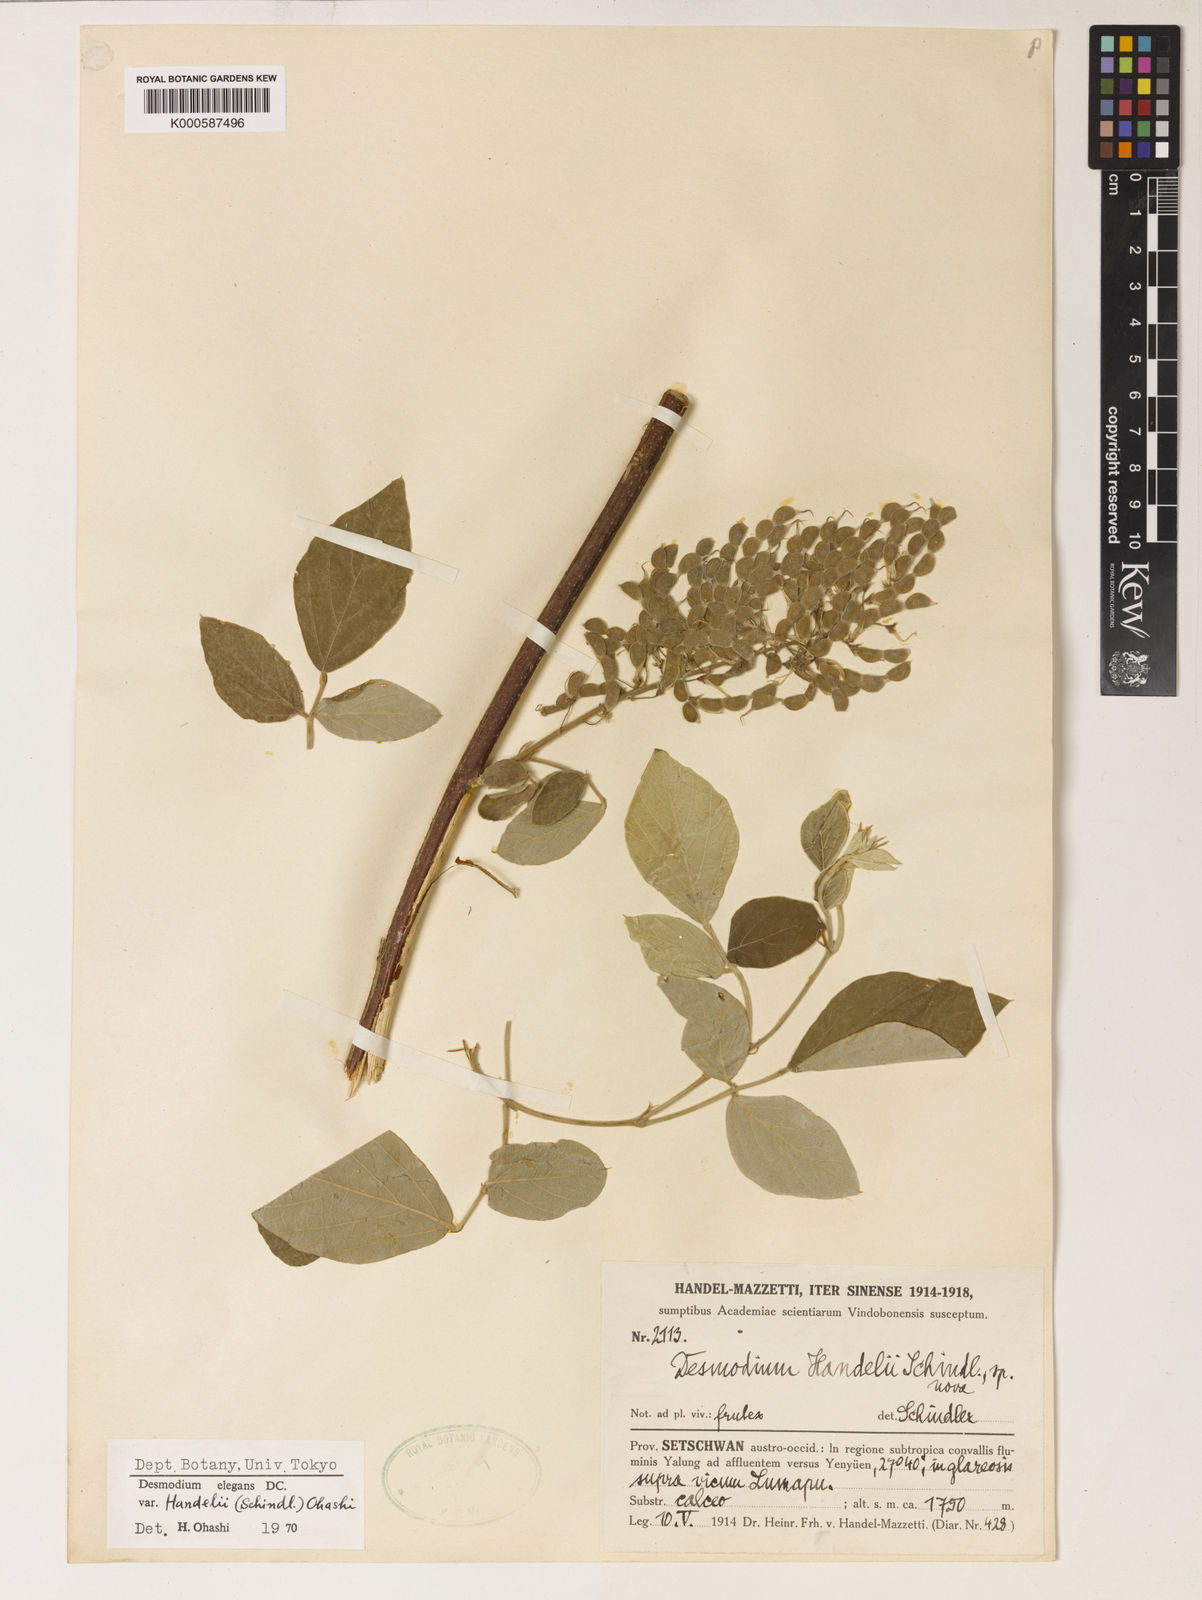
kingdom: Plantae
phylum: Tracheophyta
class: Magnoliopsida
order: Fabales
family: Fabaceae
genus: Sunhangia
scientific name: Sunhangia elegans
